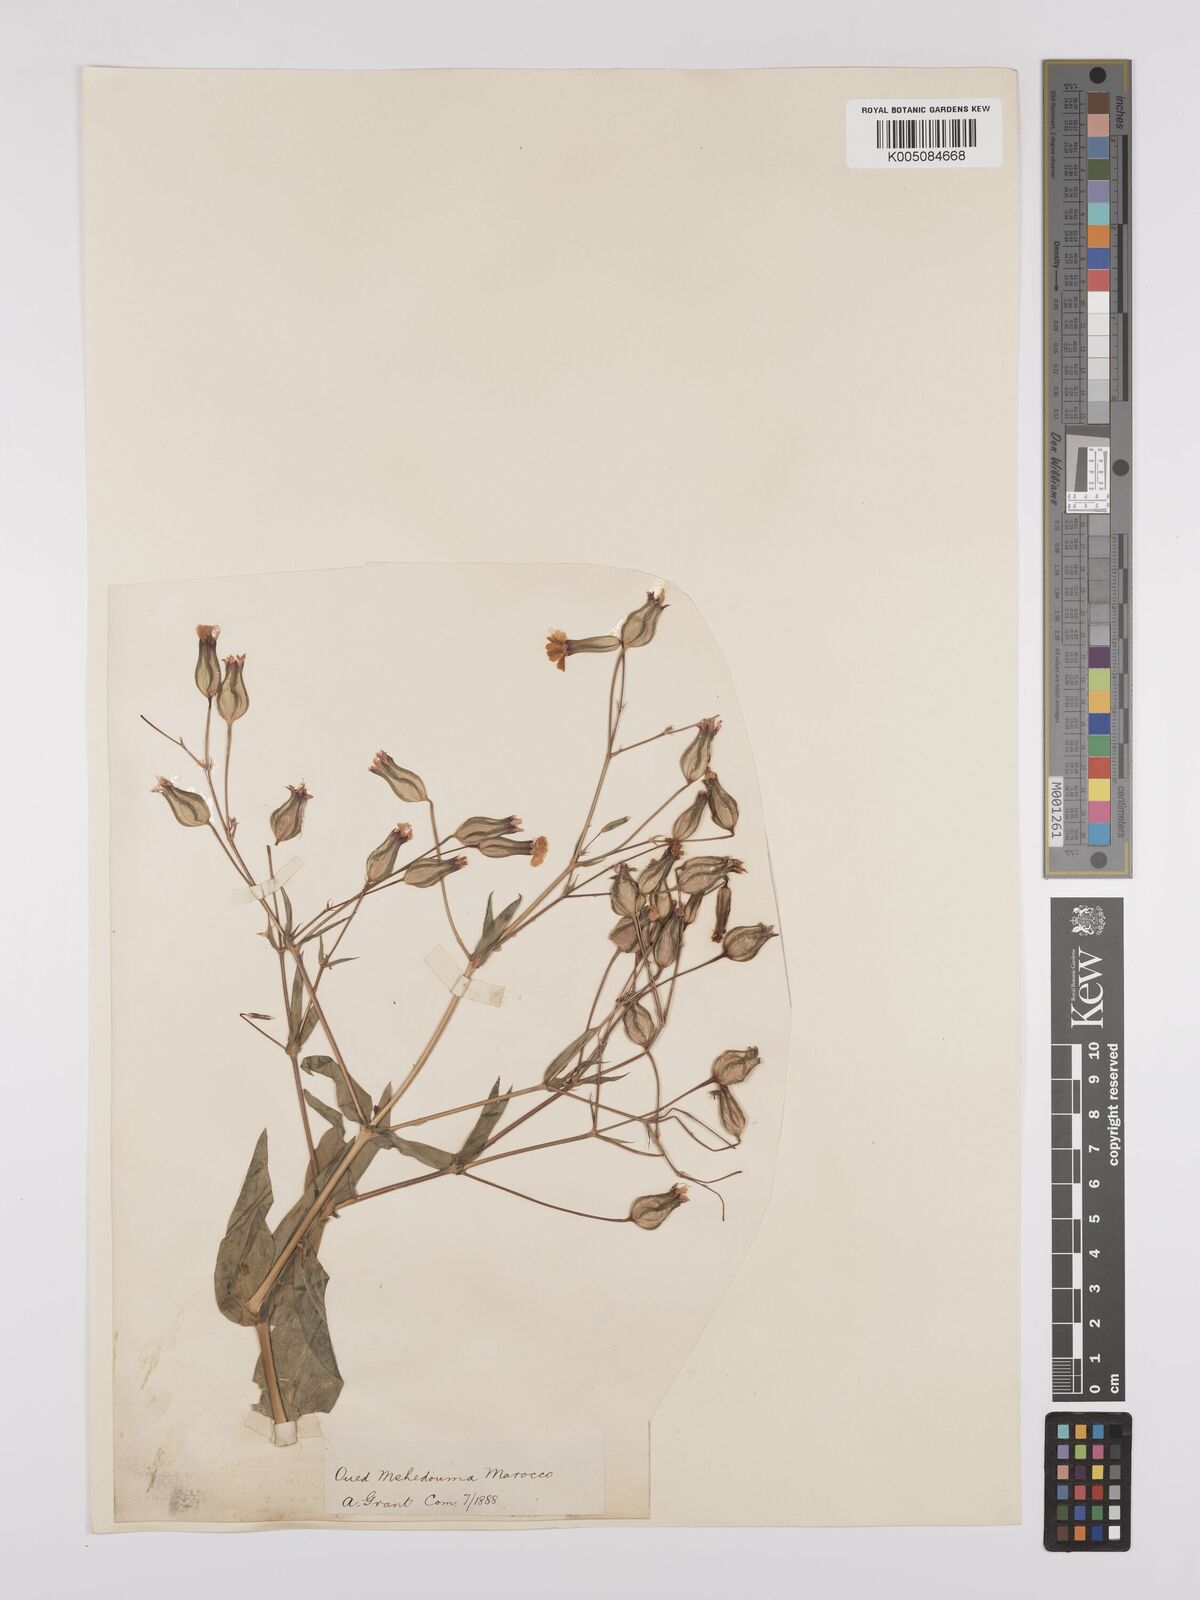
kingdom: Plantae
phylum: Tracheophyta
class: Magnoliopsida
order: Caryophyllales
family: Caryophyllaceae
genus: Gypsophila
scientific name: Gypsophila vaccaria
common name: Cow soapwort
